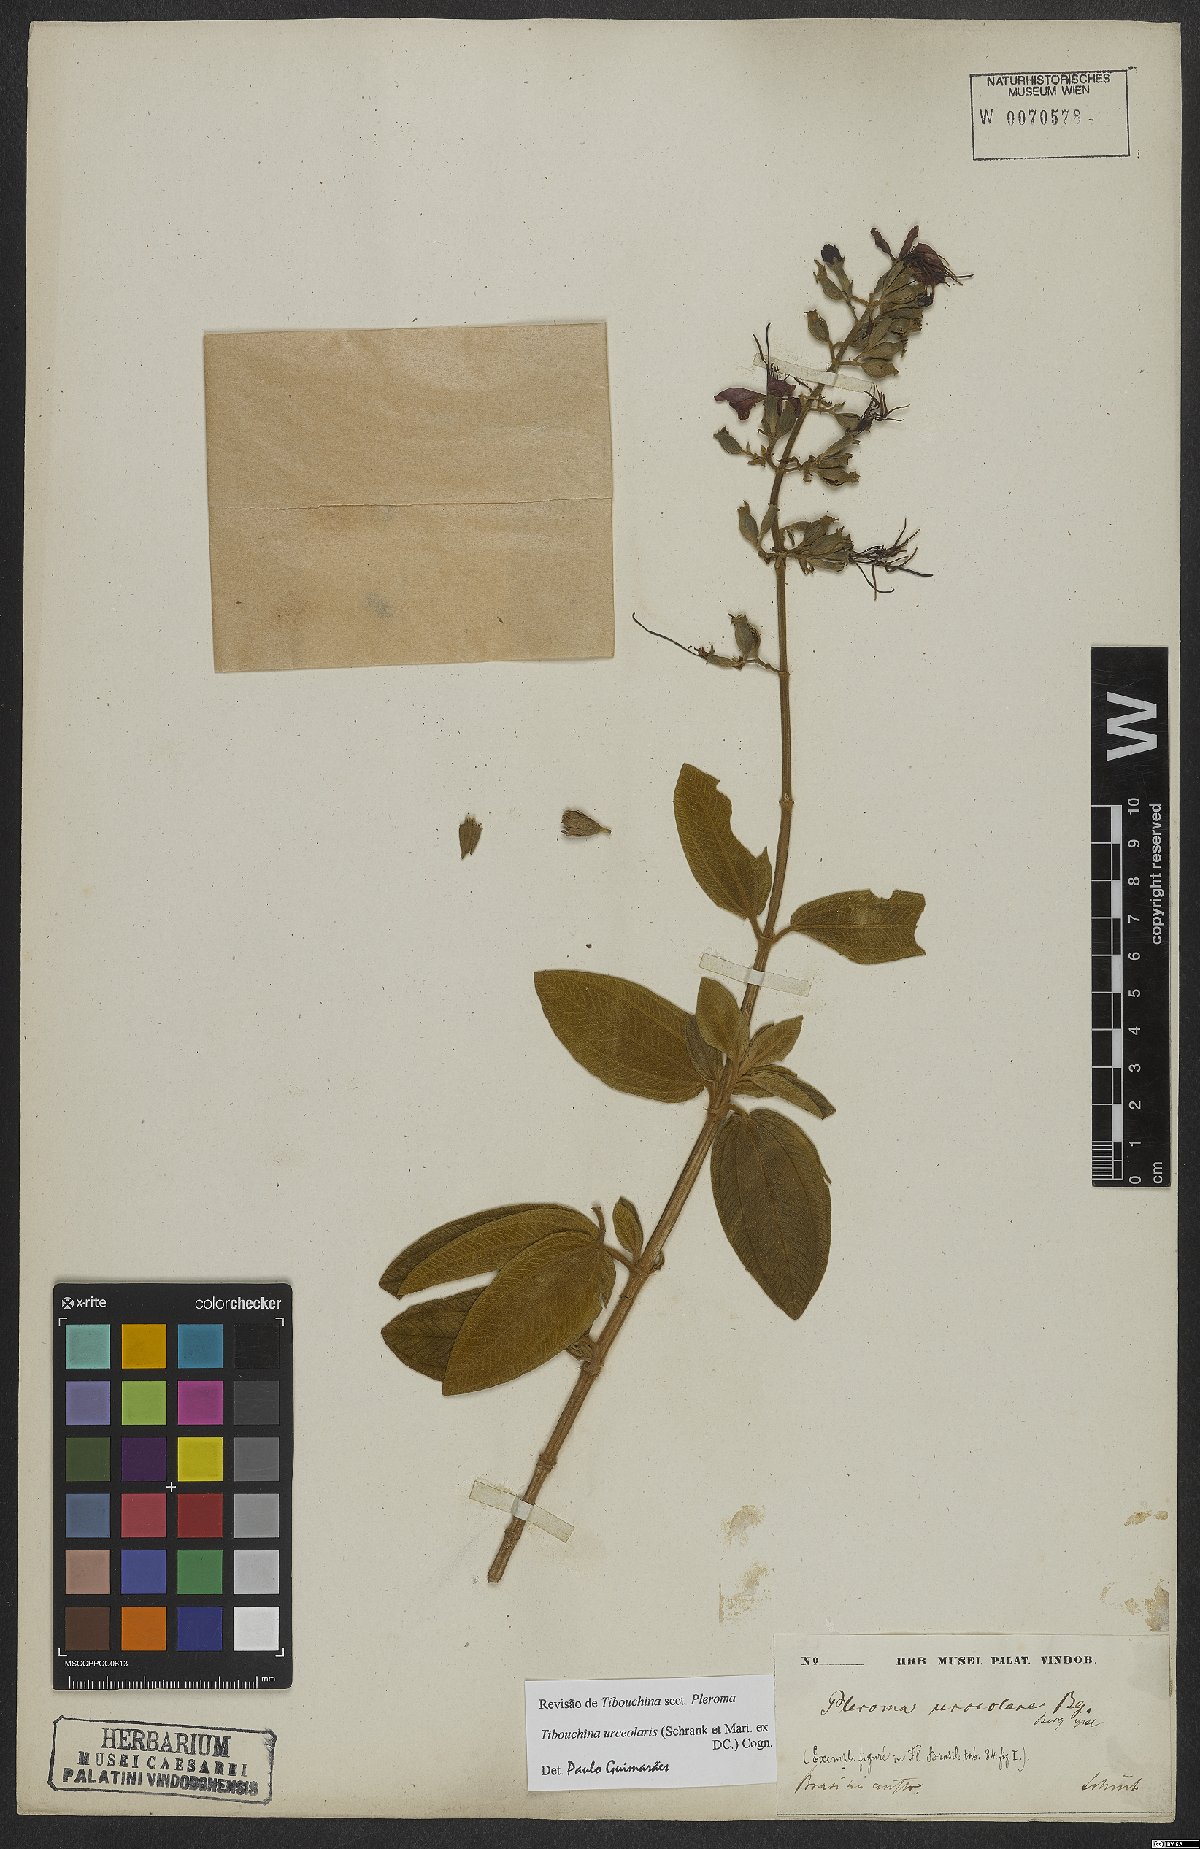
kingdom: Plantae
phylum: Tracheophyta
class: Magnoliopsida
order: Myrtales
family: Melastomataceae
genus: Pleroma
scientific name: Pleroma urceolare
